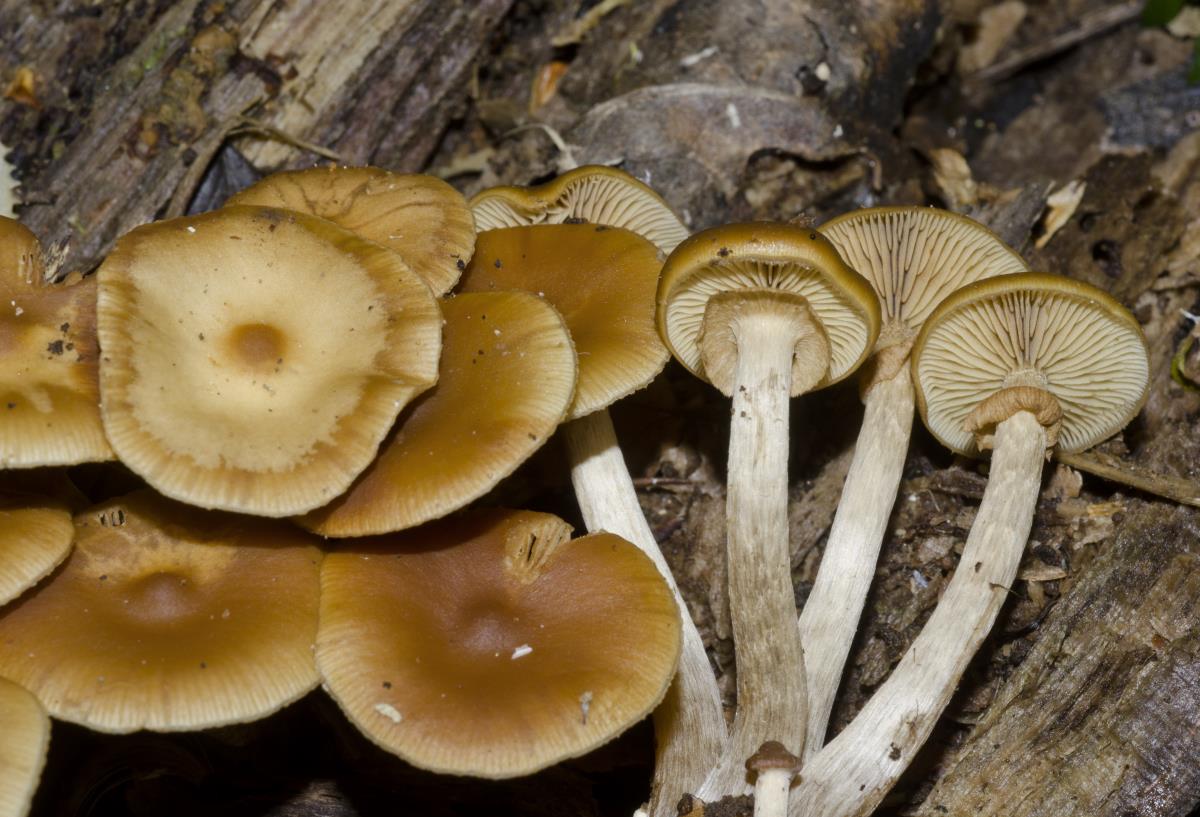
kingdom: Fungi
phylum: Basidiomycota
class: Agaricomycetes
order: Agaricales
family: Hymenogastraceae
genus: Galerina
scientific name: Galerina patagonica
